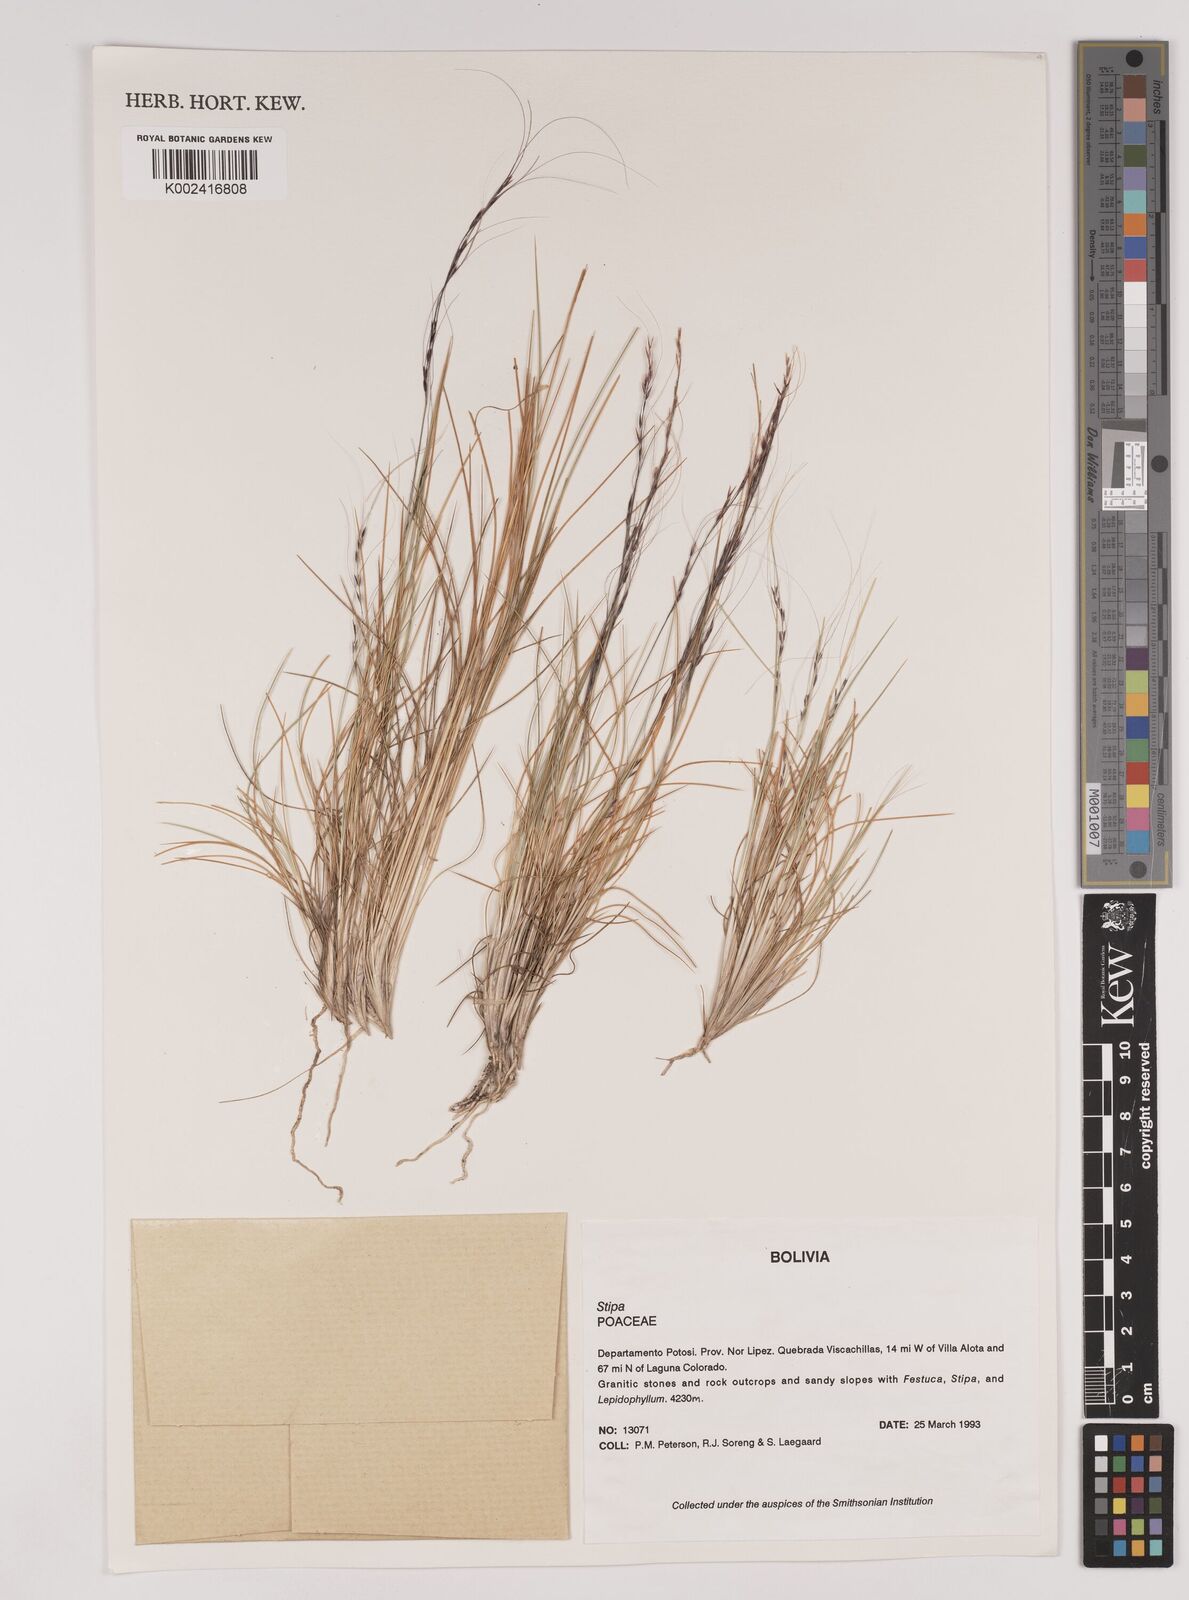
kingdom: Plantae
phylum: Tracheophyta
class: Liliopsida
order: Poales
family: Poaceae
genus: Stipa
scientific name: Stipa bomanii
